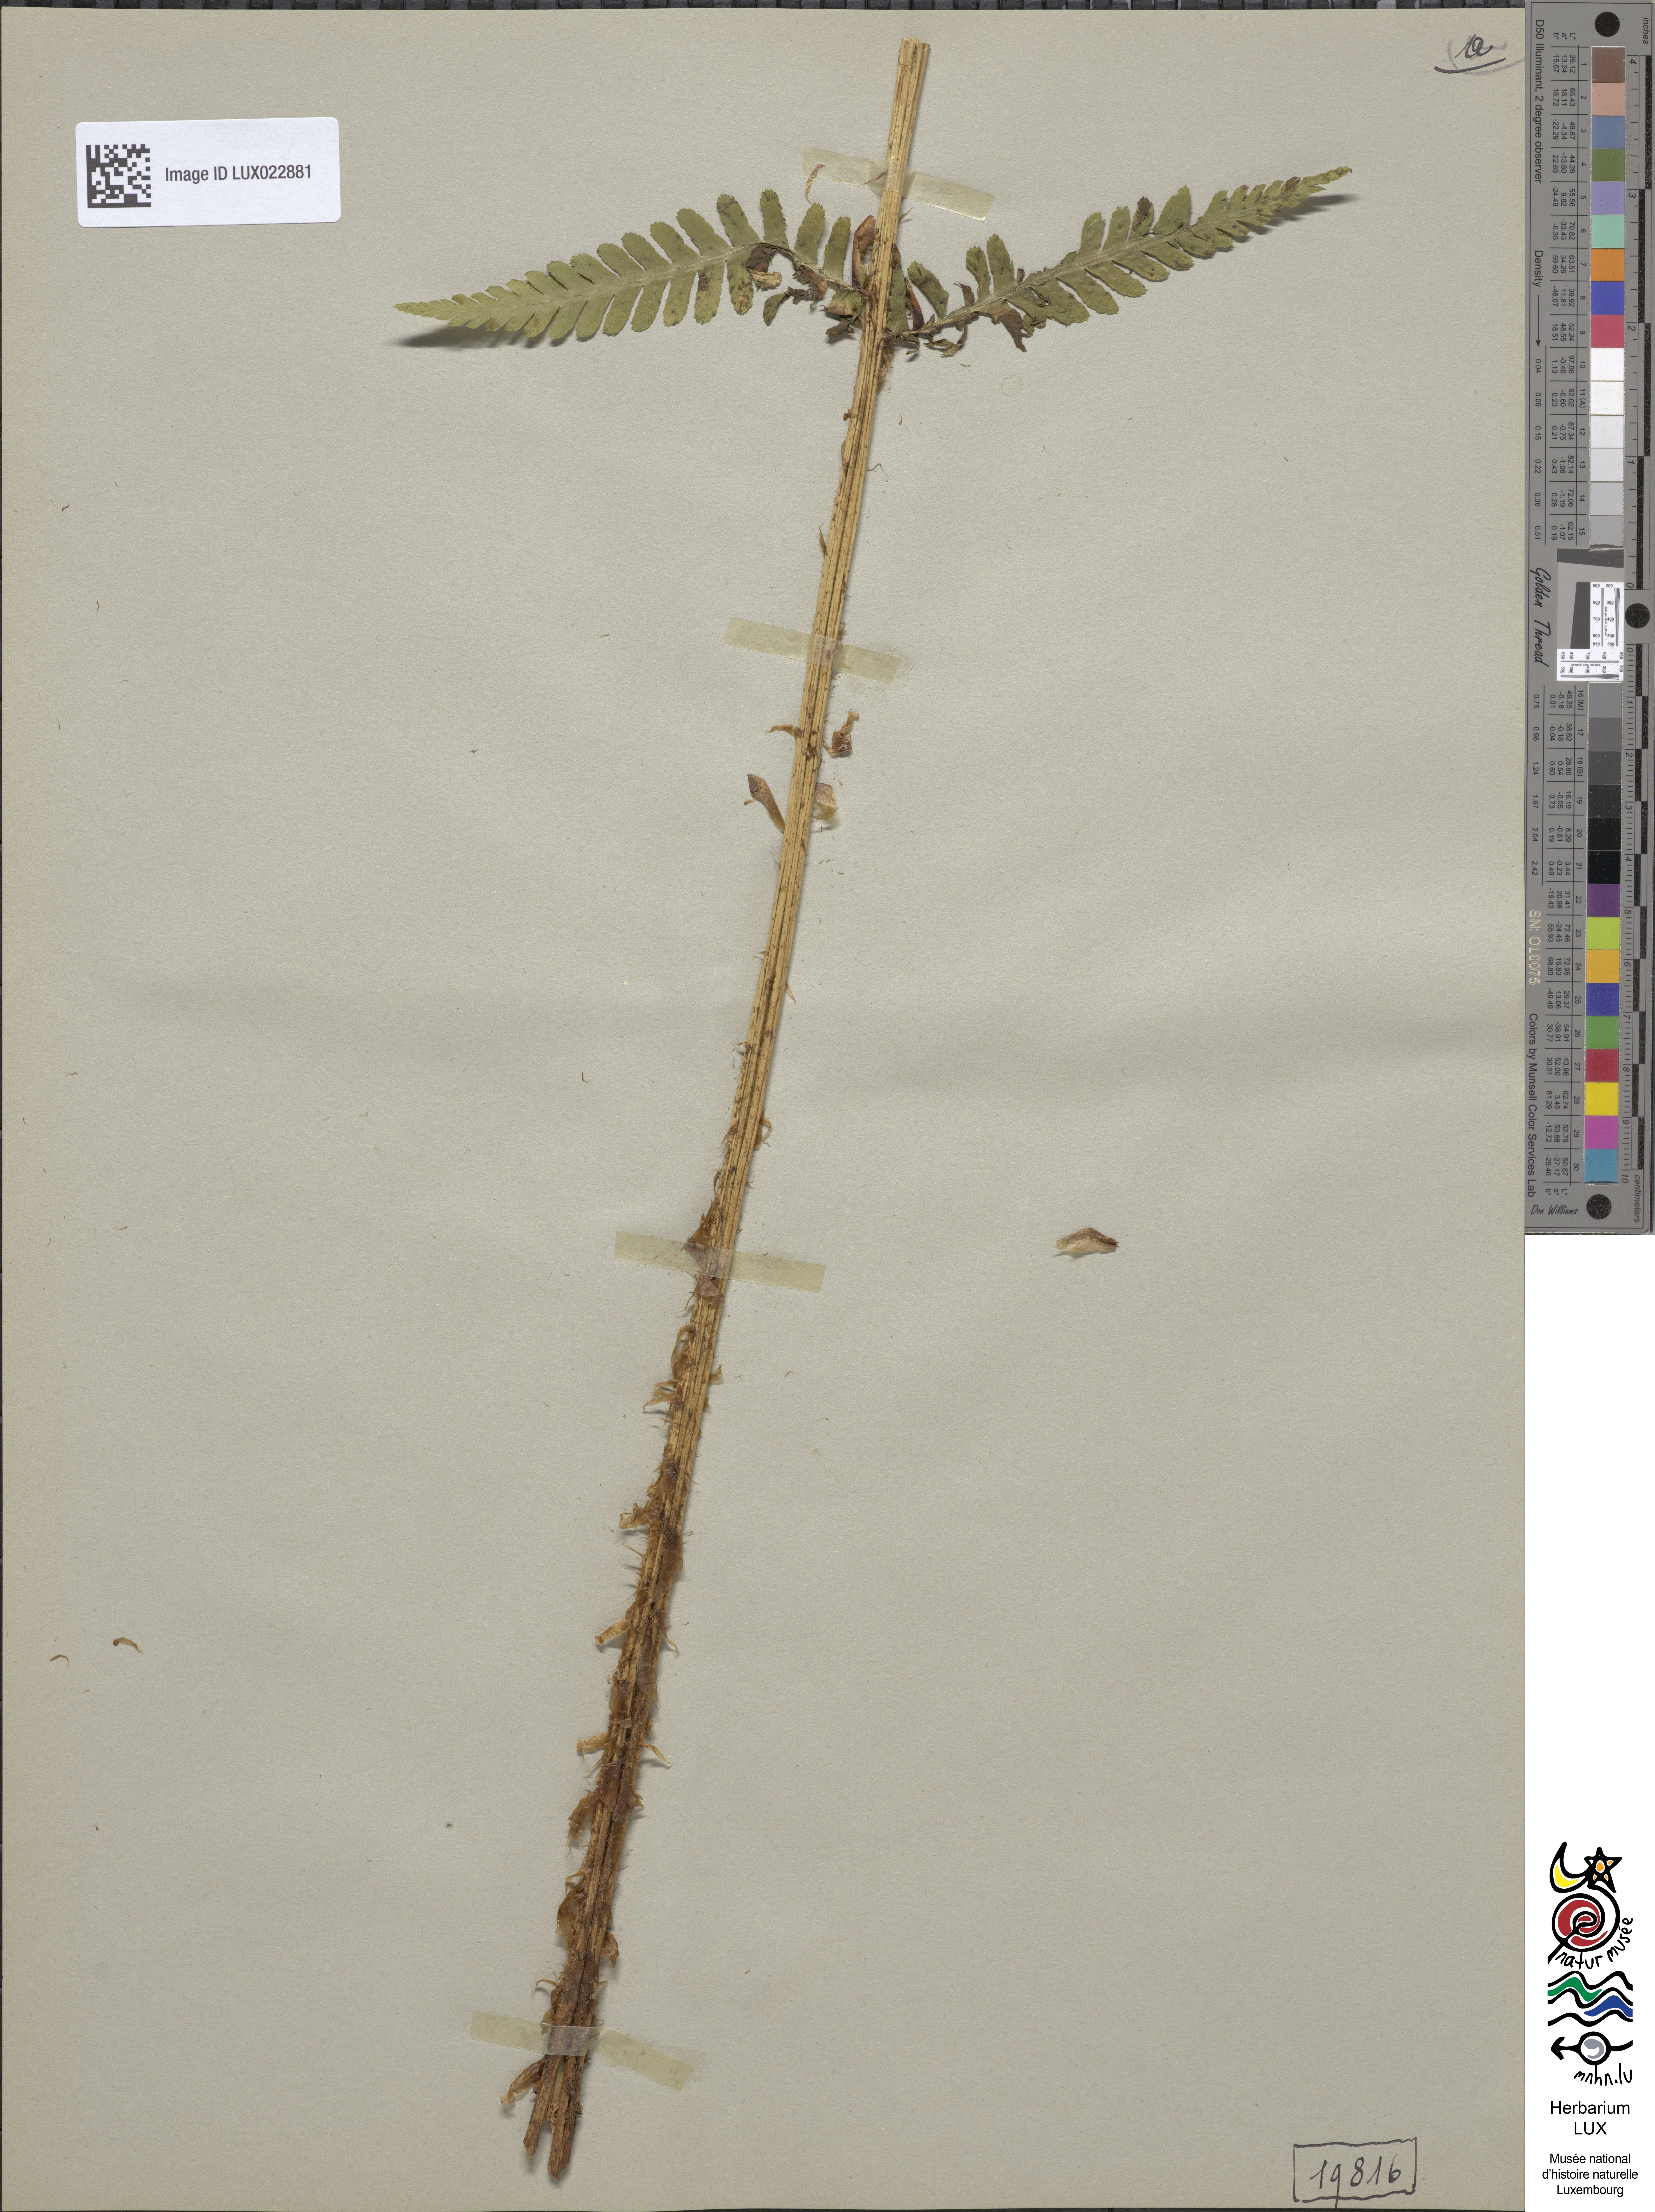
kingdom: Plantae
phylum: Tracheophyta
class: Polypodiopsida
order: Polypodiales
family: Dryopteridaceae
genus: Dryopteris
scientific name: Dryopteris filix-mas
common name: Male fern
